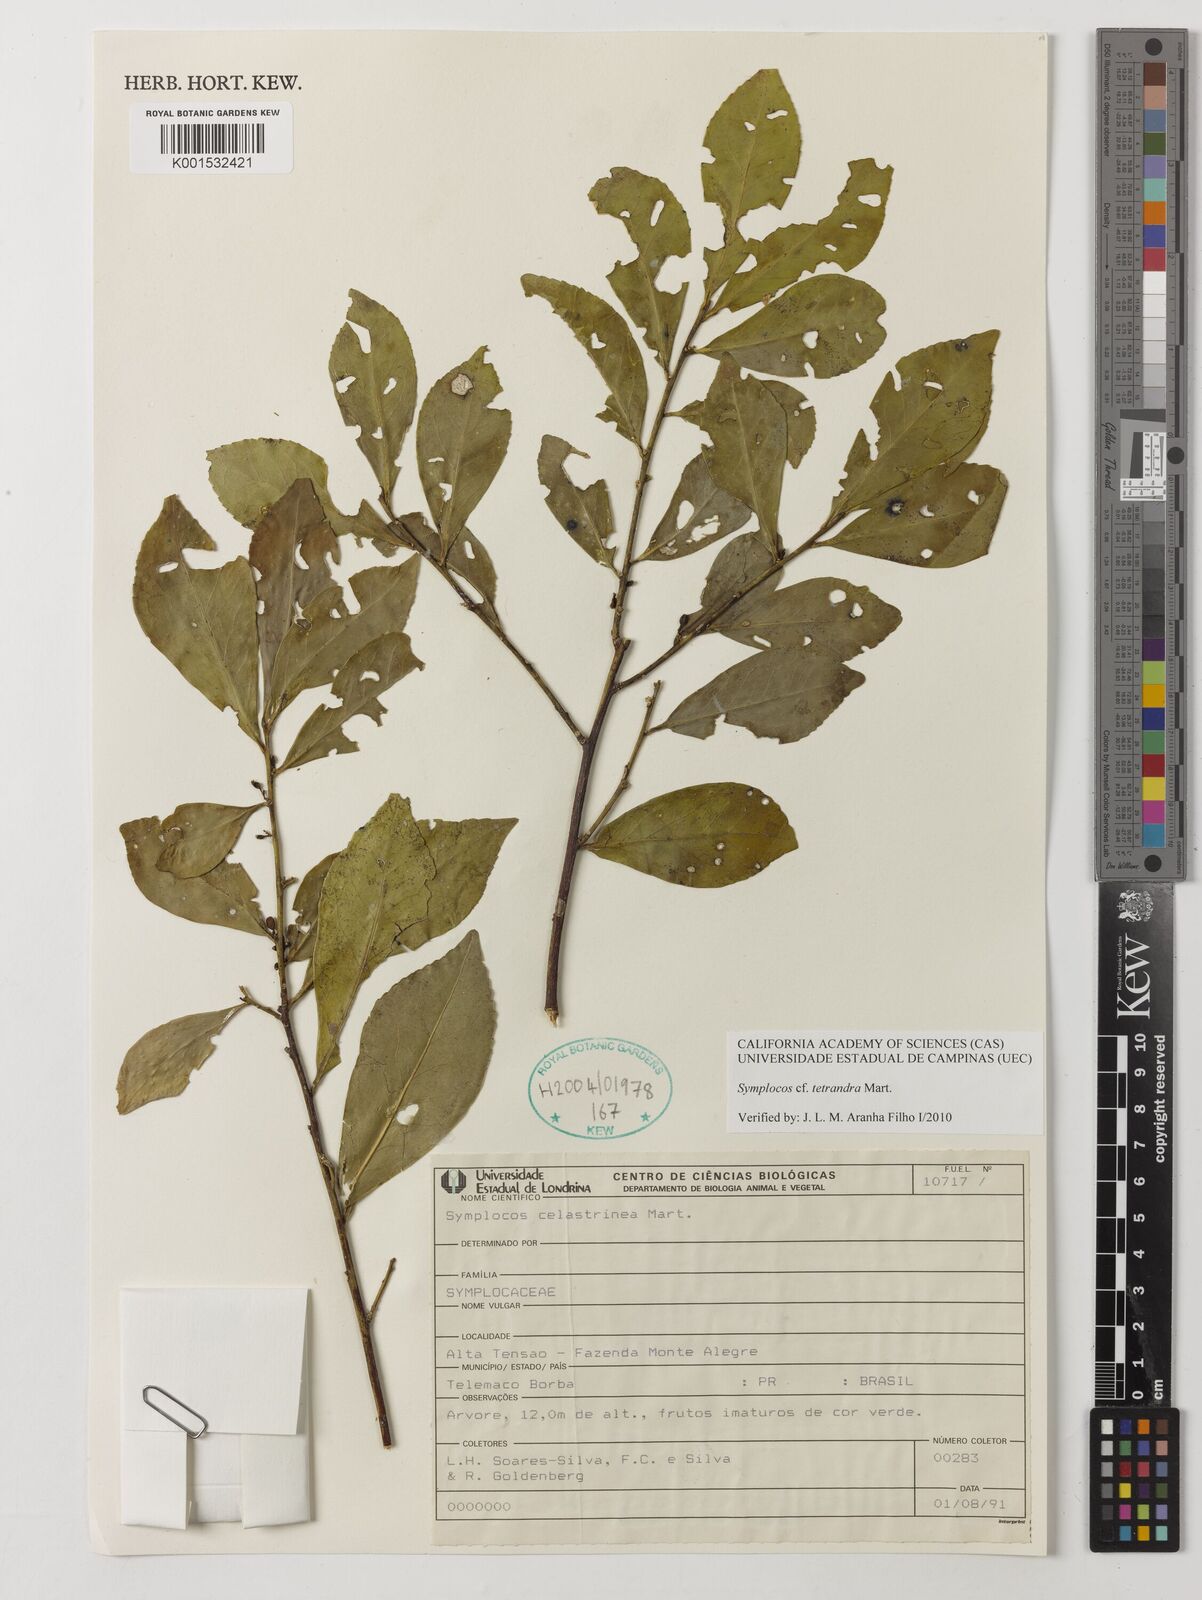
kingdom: Plantae
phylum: Tracheophyta
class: Magnoliopsida
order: Ericales
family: Symplocaceae
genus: Symplocos
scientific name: Symplocos tetrandra
